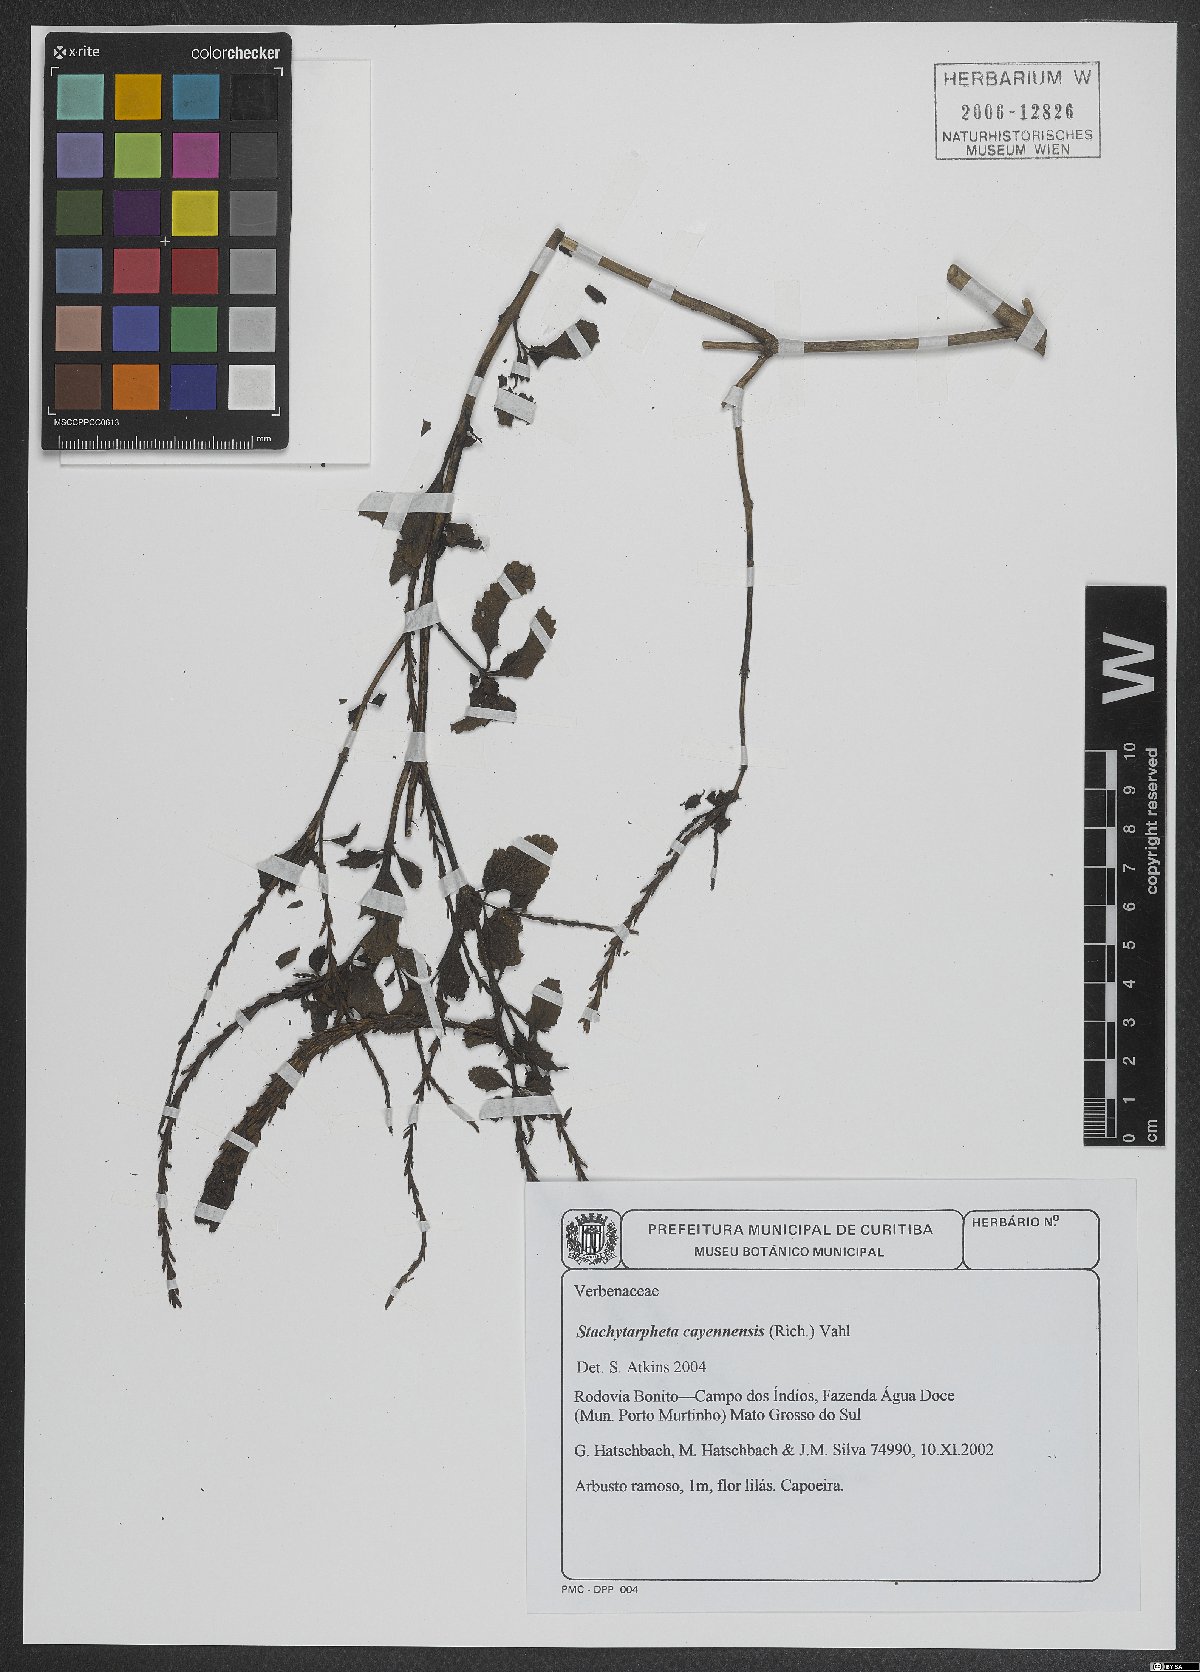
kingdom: Plantae
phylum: Tracheophyta
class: Magnoliopsida
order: Lamiales
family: Verbenaceae
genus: Stachytarpheta
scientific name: Stachytarpheta cayennensis
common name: Cayenne porterweed
